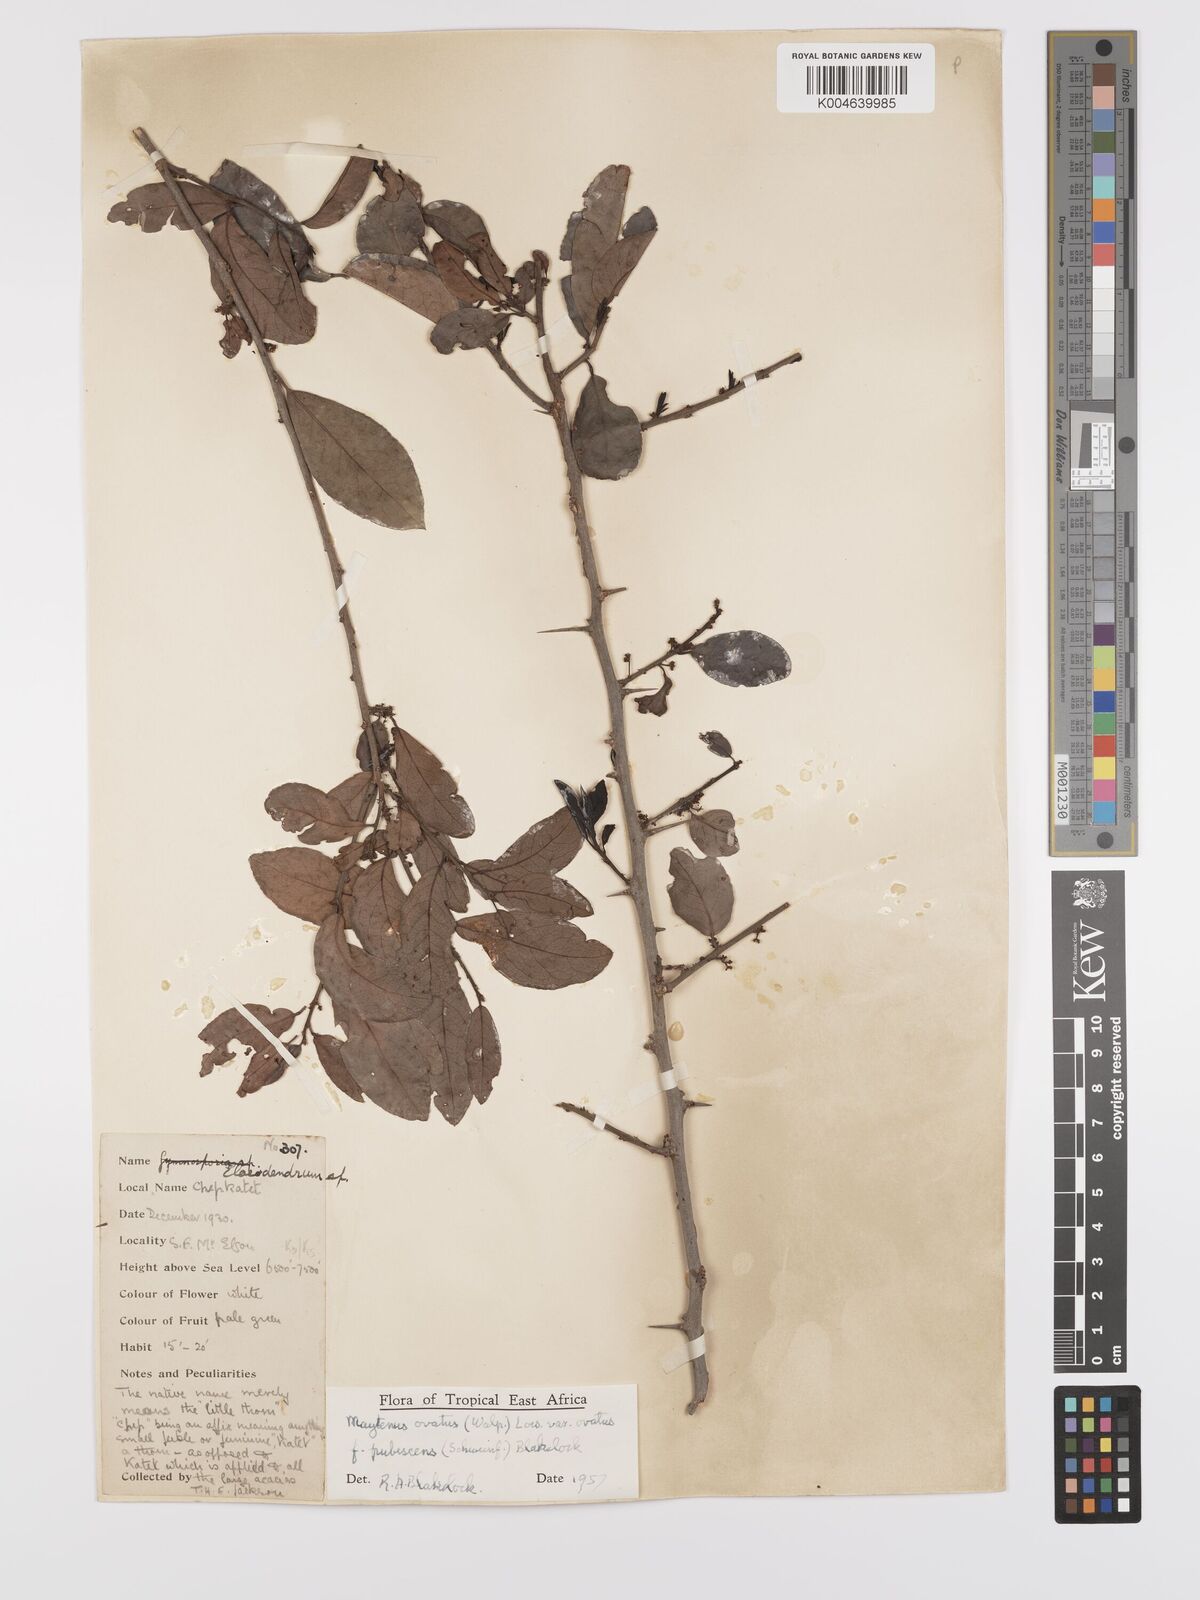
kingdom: Plantae
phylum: Tracheophyta
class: Magnoliopsida
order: Celastrales
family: Celastraceae
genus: Gymnosporia
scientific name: Gymnosporia arbutifolia
